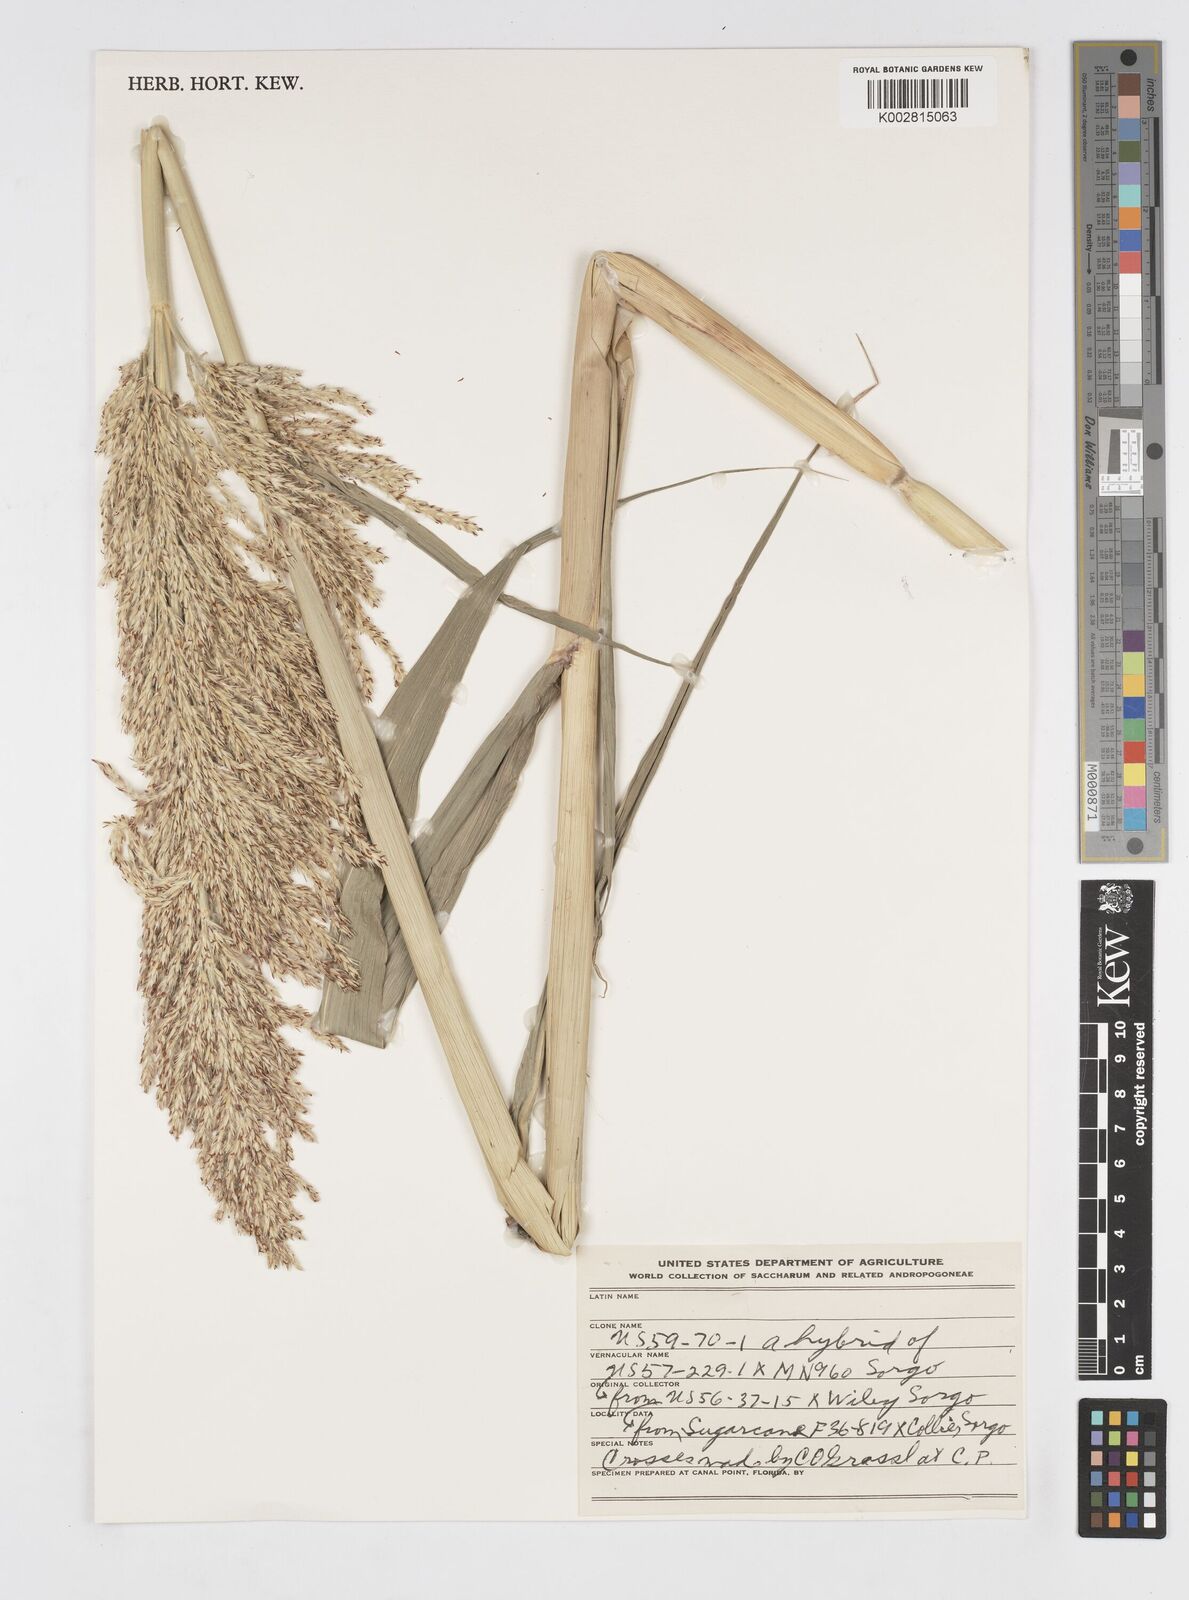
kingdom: Plantae
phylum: Tracheophyta
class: Liliopsida
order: Poales
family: Poaceae
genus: Saccharum
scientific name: Saccharum
